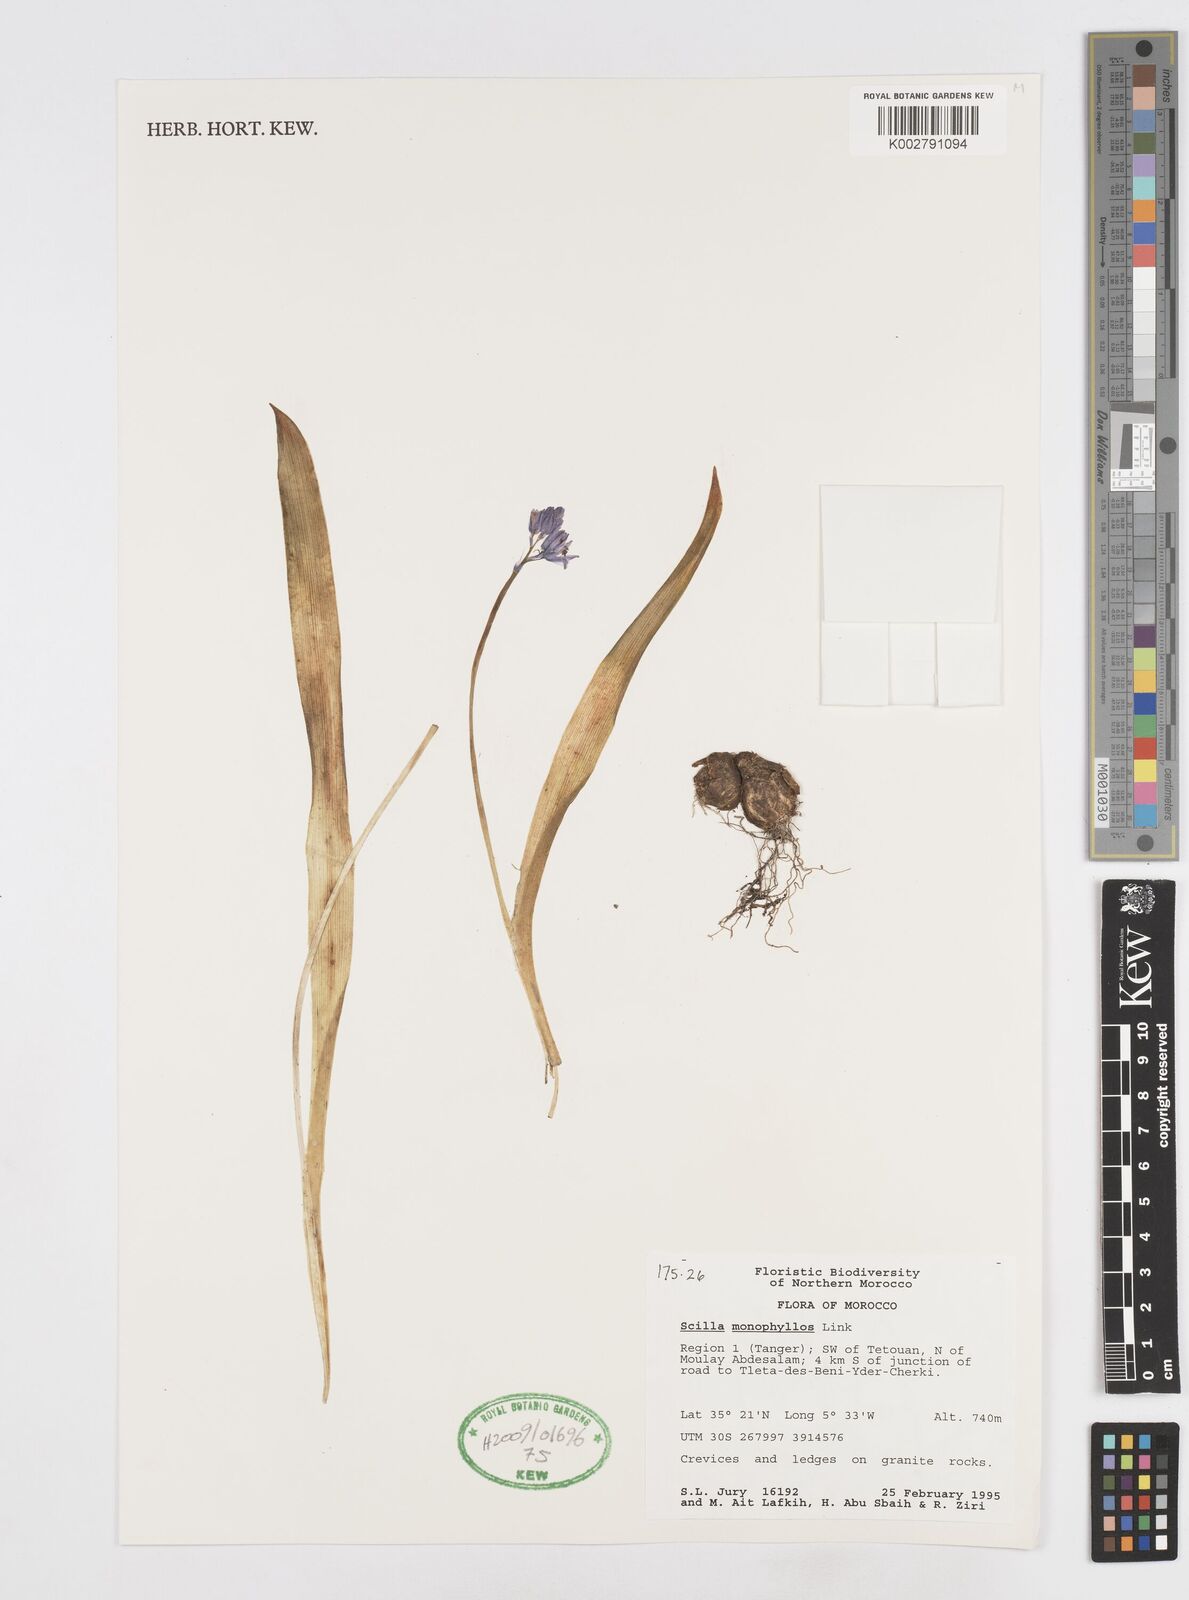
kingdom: Plantae
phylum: Tracheophyta
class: Liliopsida
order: Asparagales
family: Asparagaceae
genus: Scilla
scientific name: Scilla monophyllos
